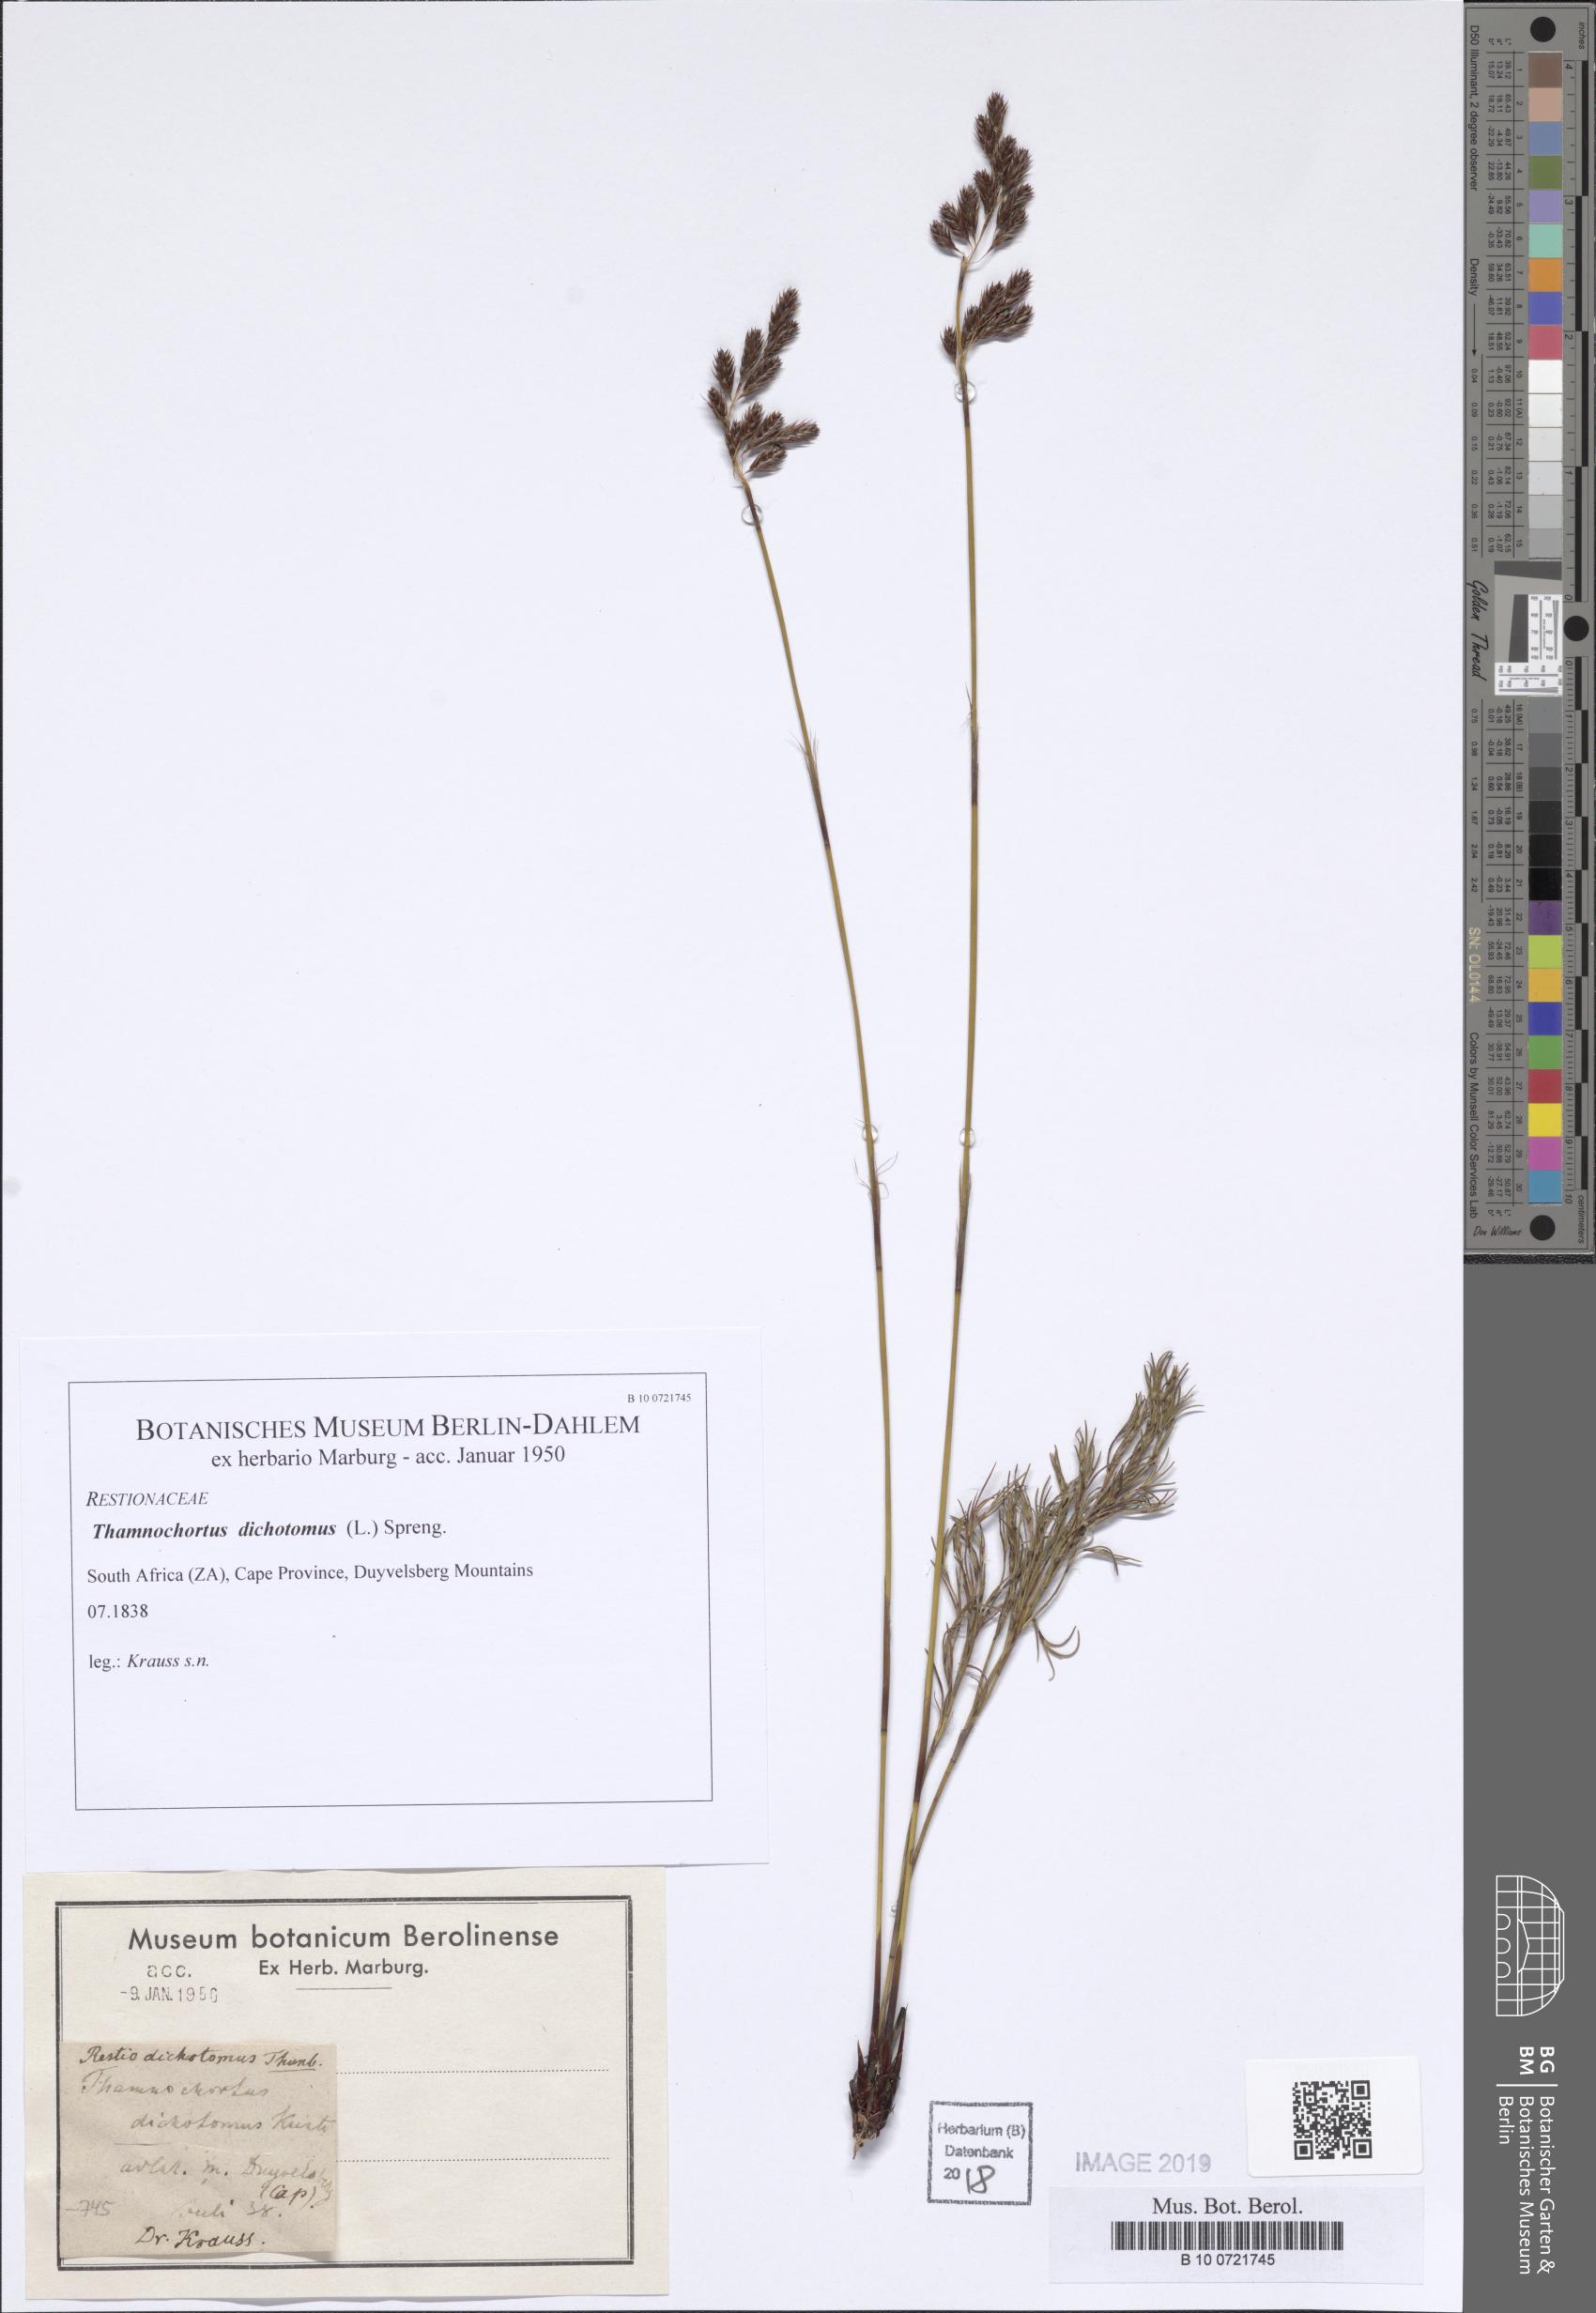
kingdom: Plantae
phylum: Tracheophyta
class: Liliopsida
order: Poales
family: Restionaceae
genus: Restio
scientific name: Restio capensis
